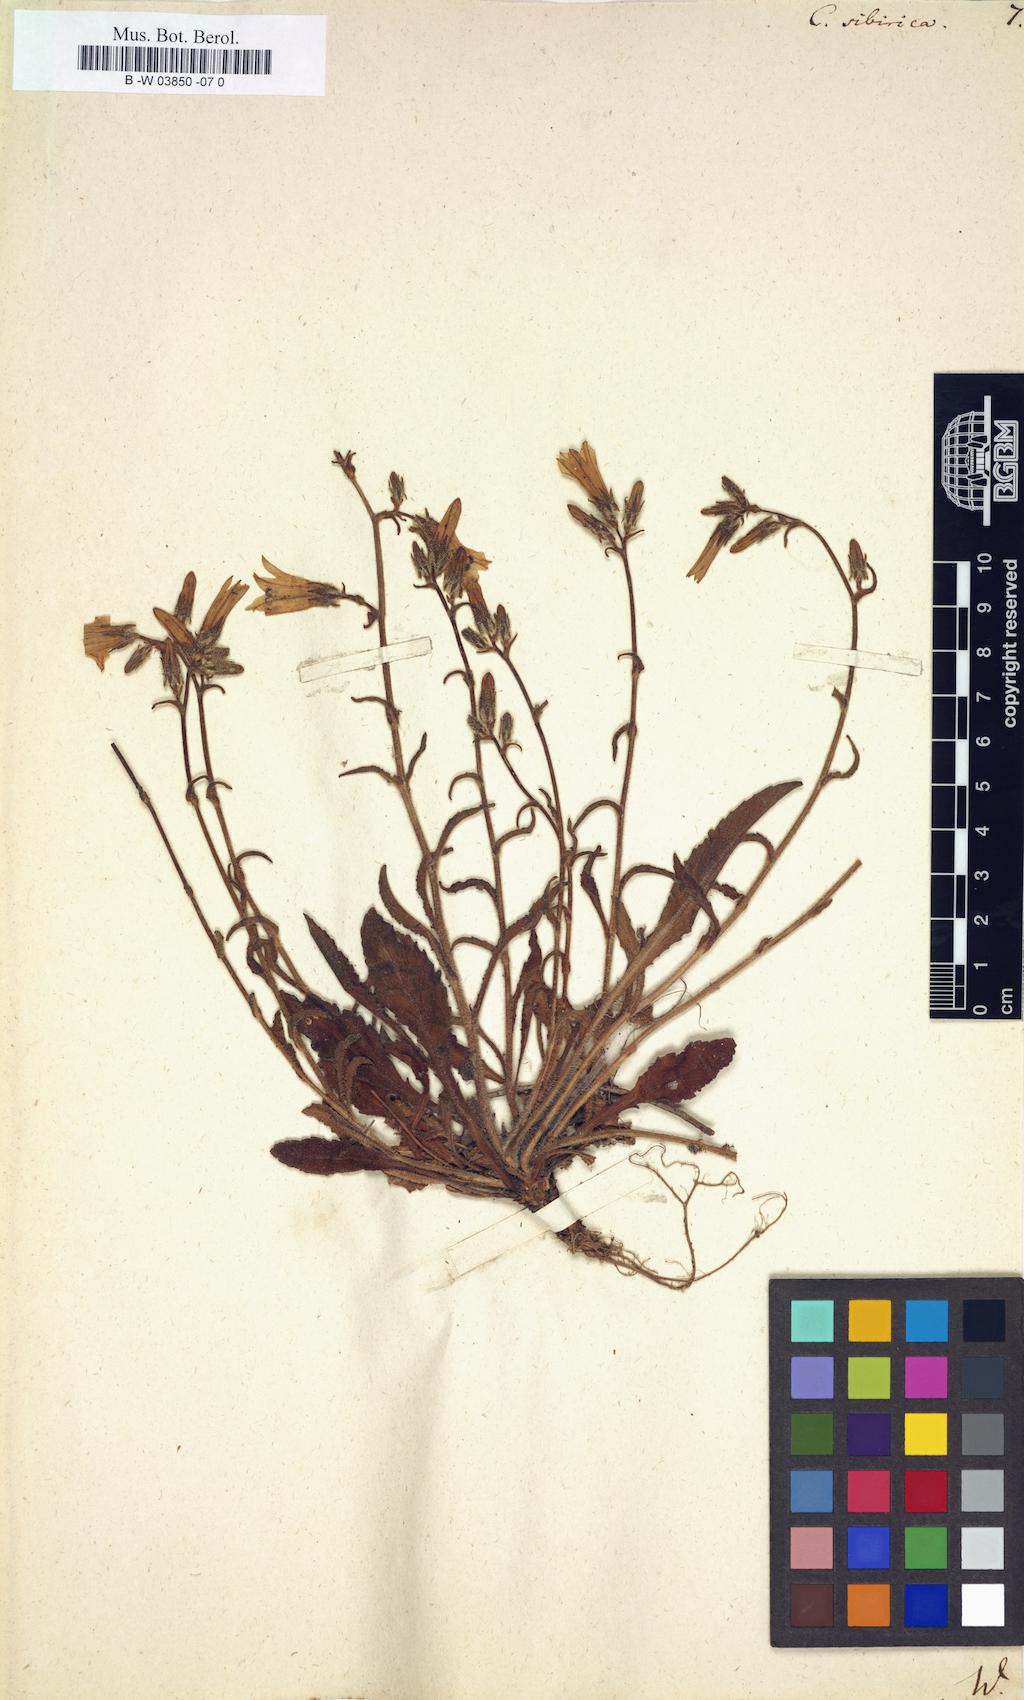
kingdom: Plantae
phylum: Tracheophyta
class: Magnoliopsida
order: Asterales
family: Campanulaceae
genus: Campanula
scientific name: Campanula sibirica
